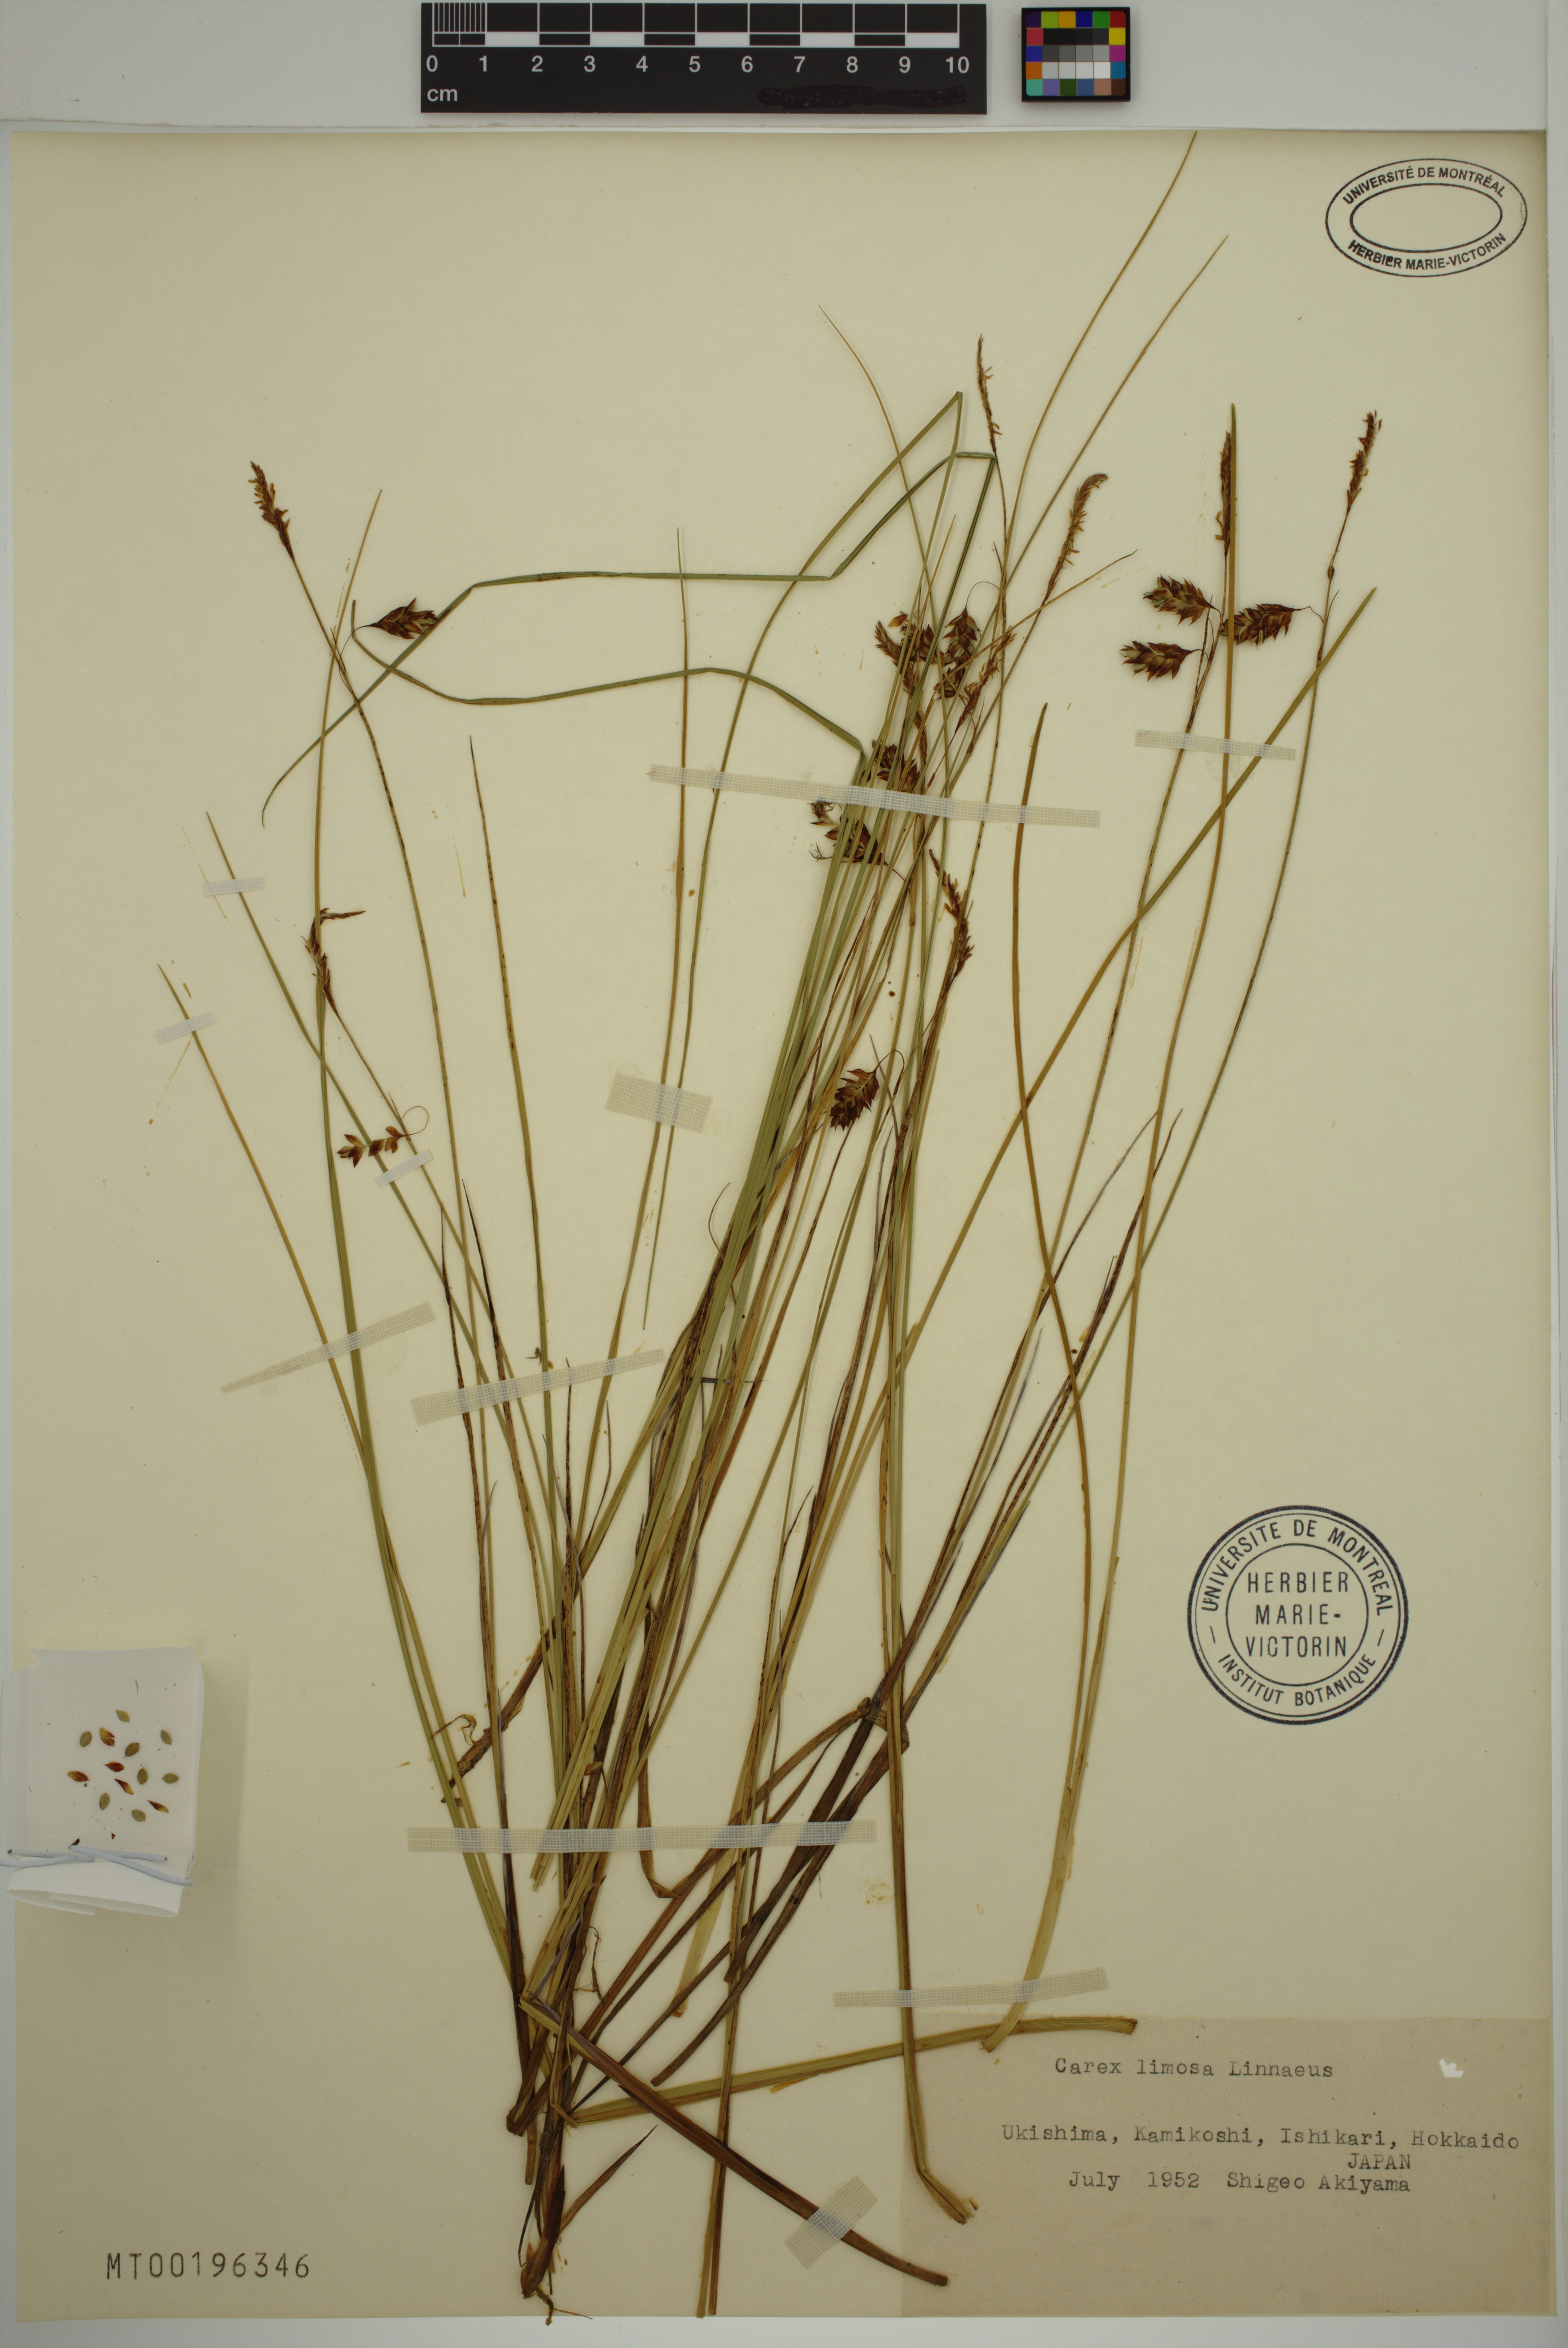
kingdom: Plantae
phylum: Tracheophyta
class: Liliopsida
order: Poales
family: Cyperaceae
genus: Carex
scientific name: Carex limosa
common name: Bog sedge
